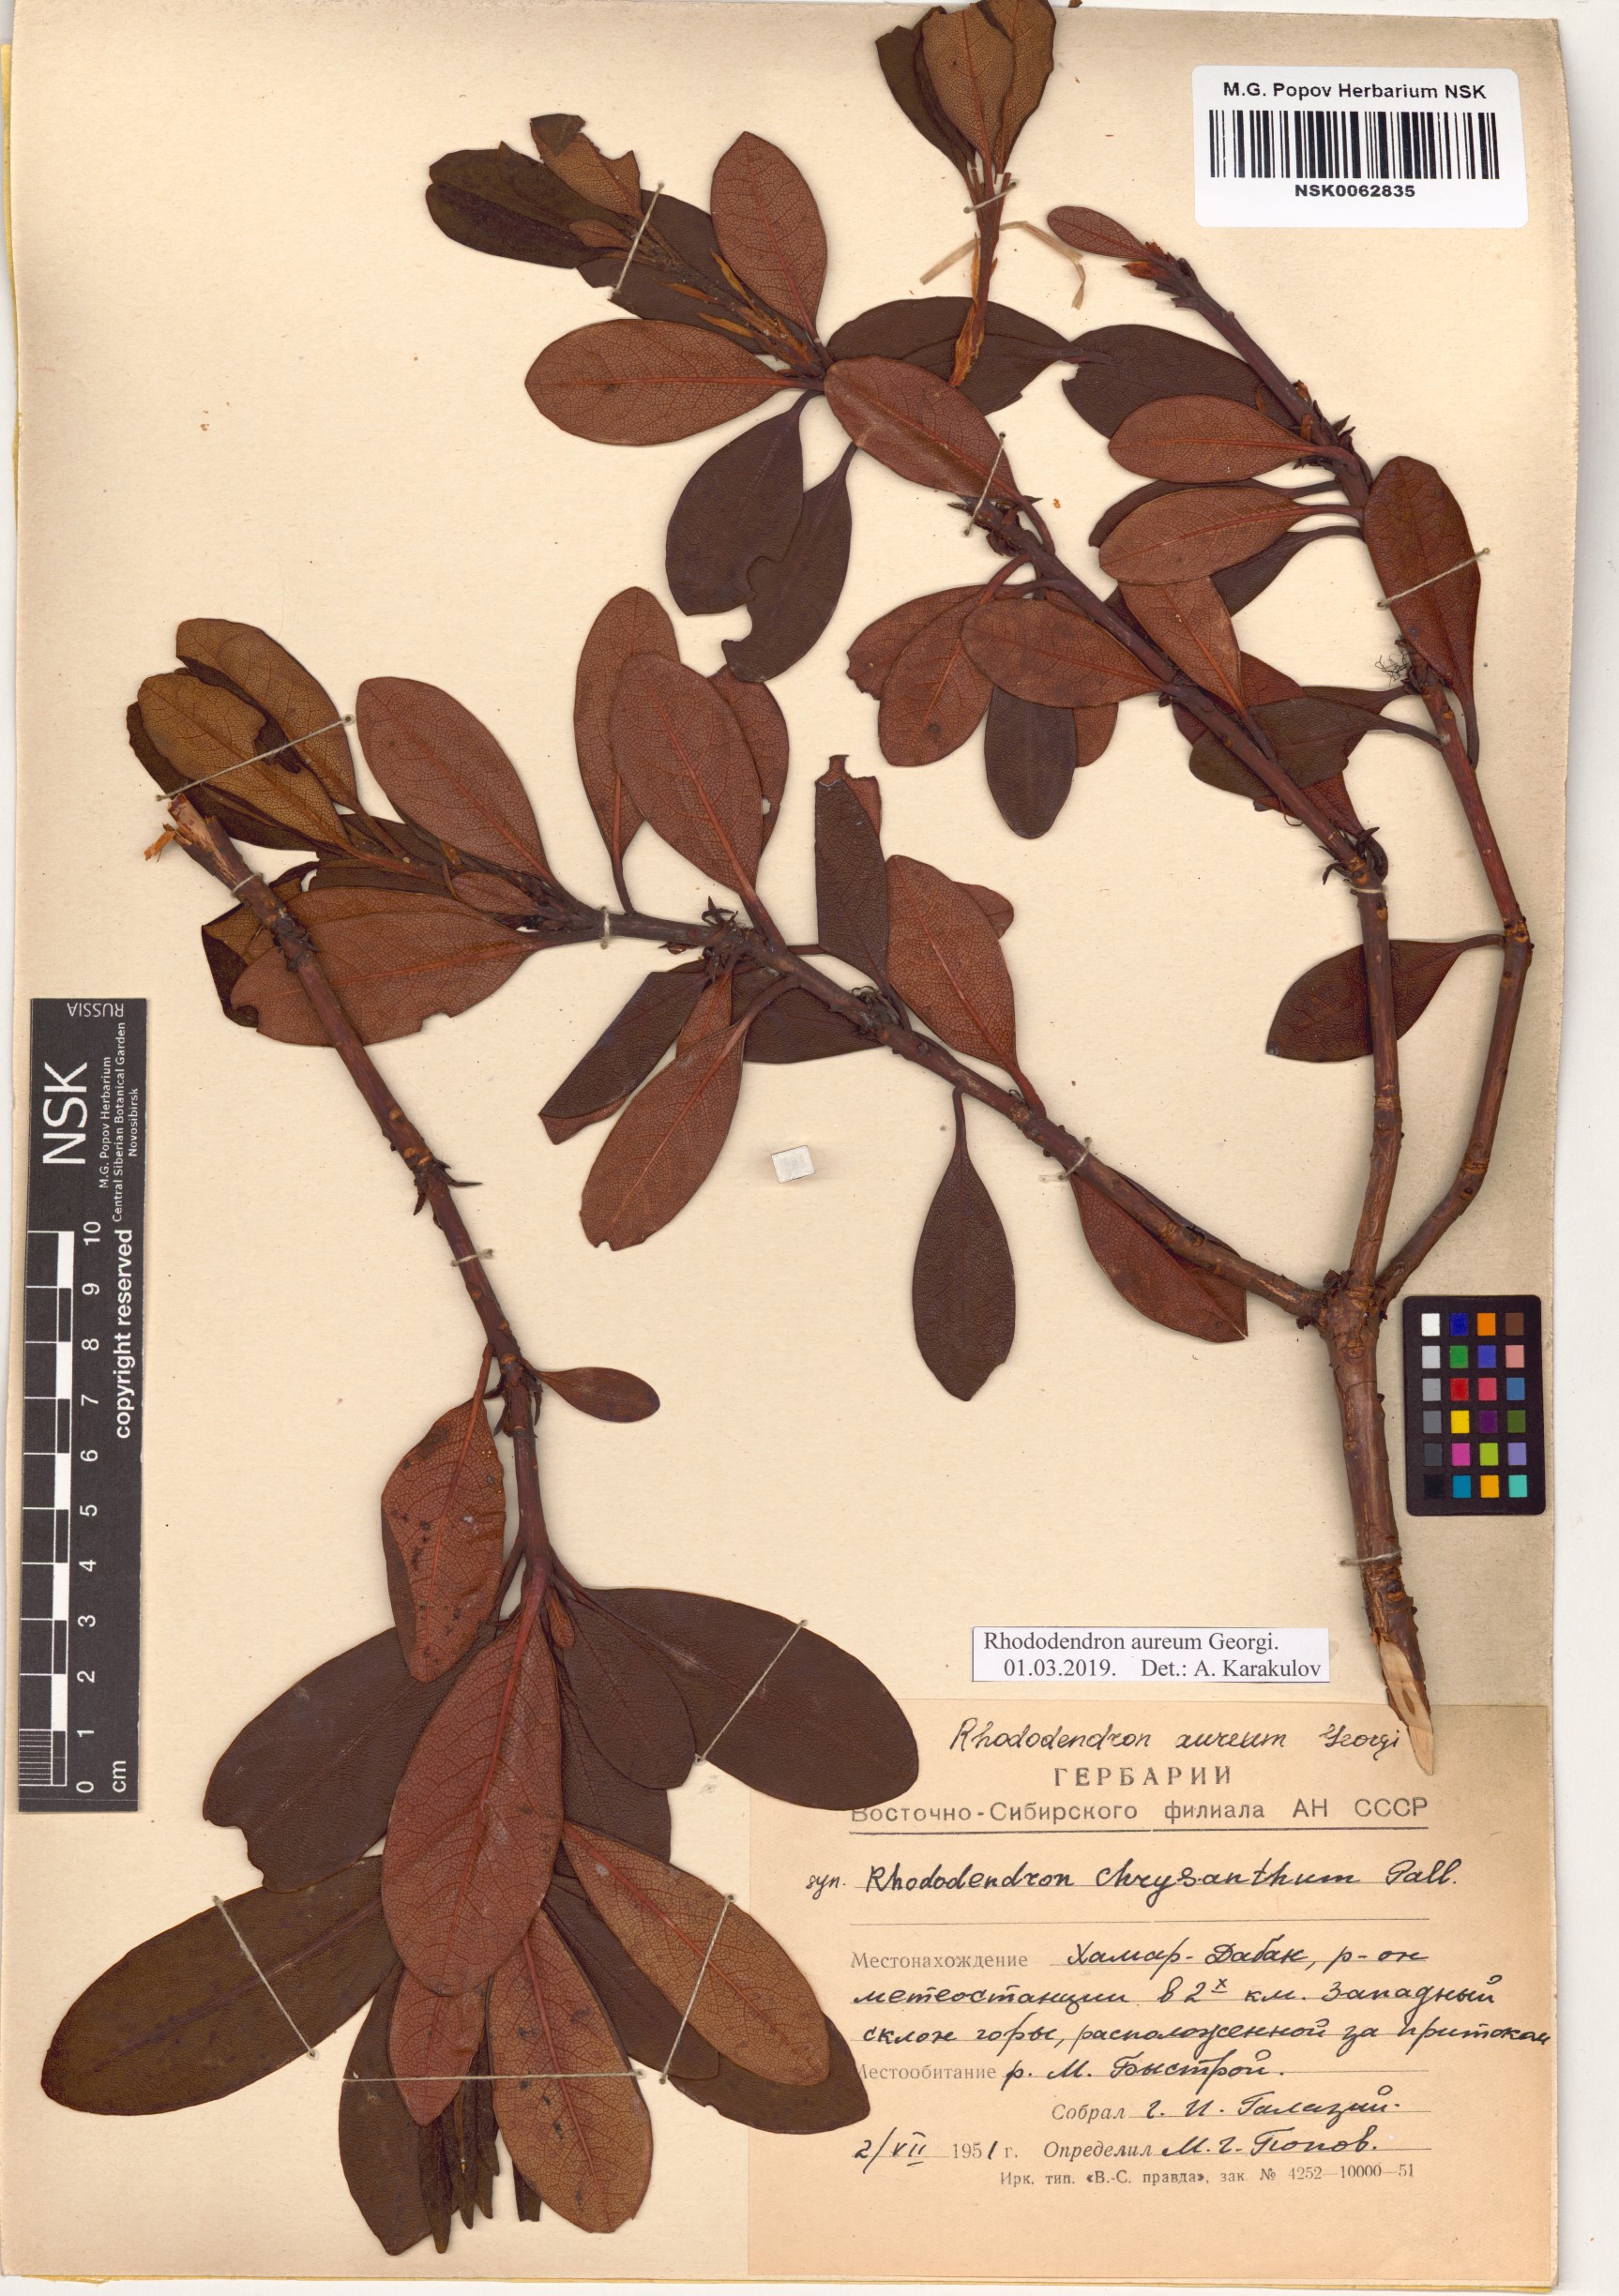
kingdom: Plantae
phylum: Tracheophyta
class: Magnoliopsida
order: Ericales
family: Ericaceae
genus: Rhododendron
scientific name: Rhododendron aureum
